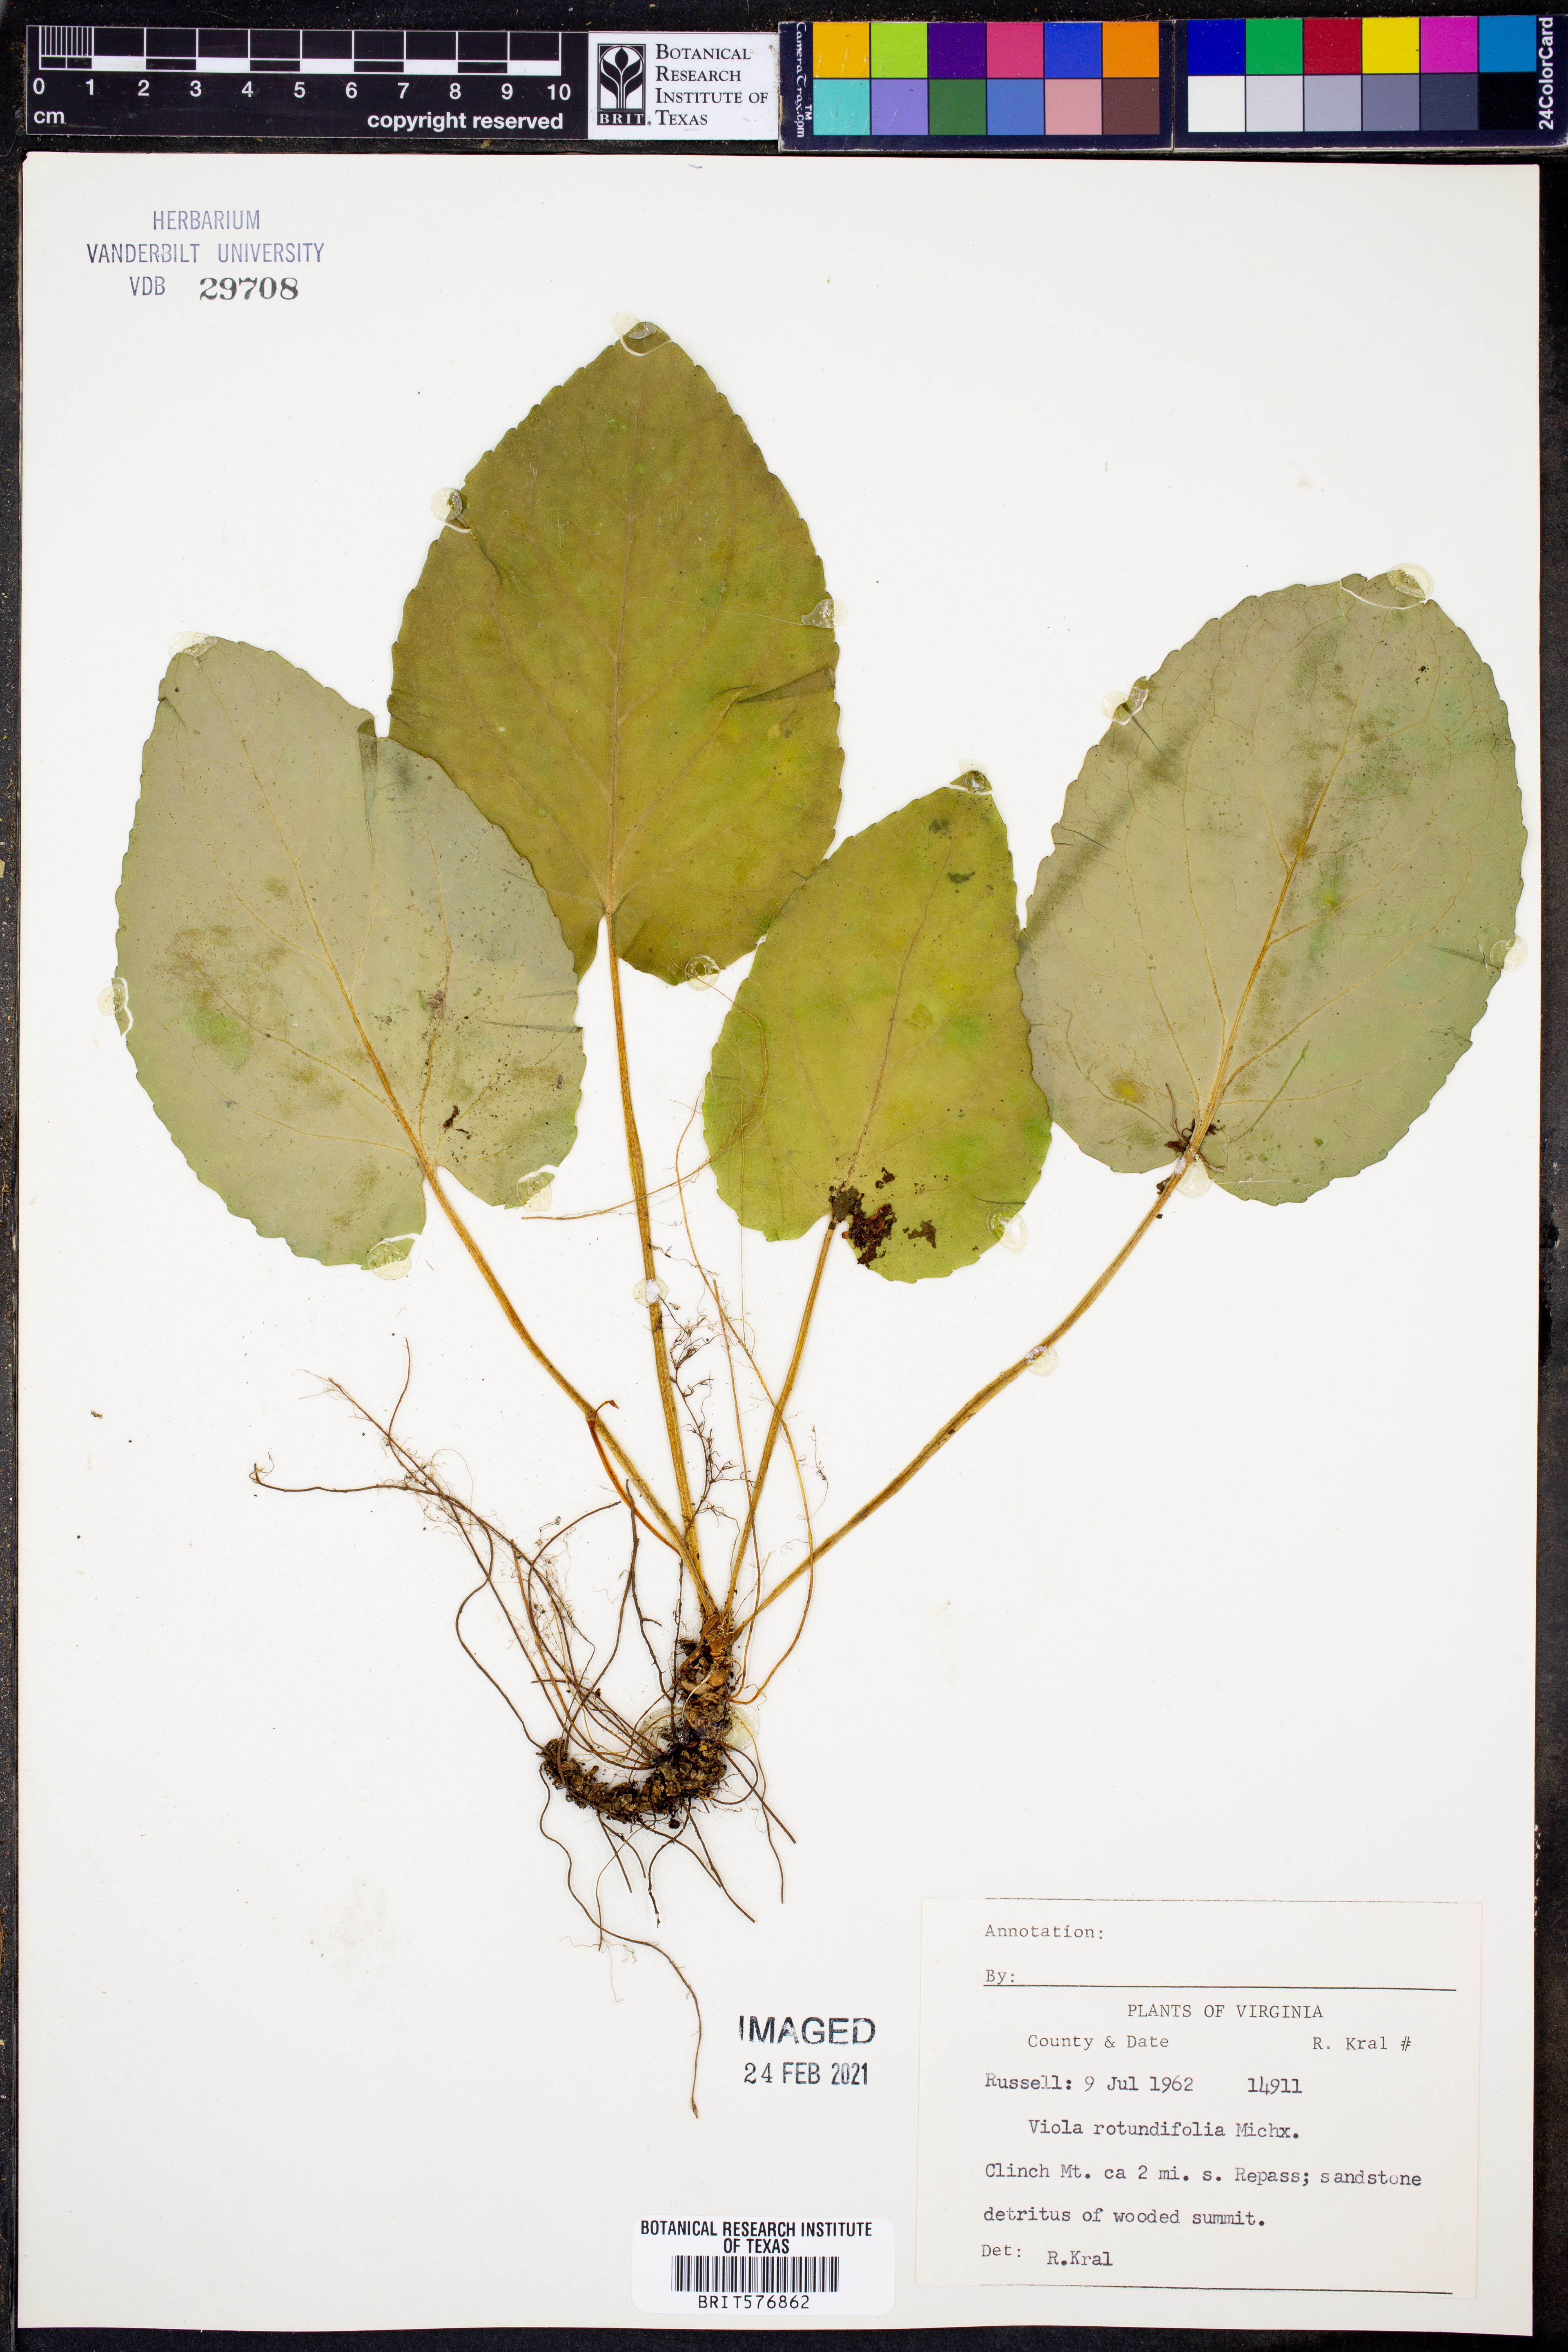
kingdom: Plantae
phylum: Tracheophyta
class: Magnoliopsida
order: Malpighiales
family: Violaceae
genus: Viola
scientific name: Viola rotundifolia
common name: Early yellow violet
